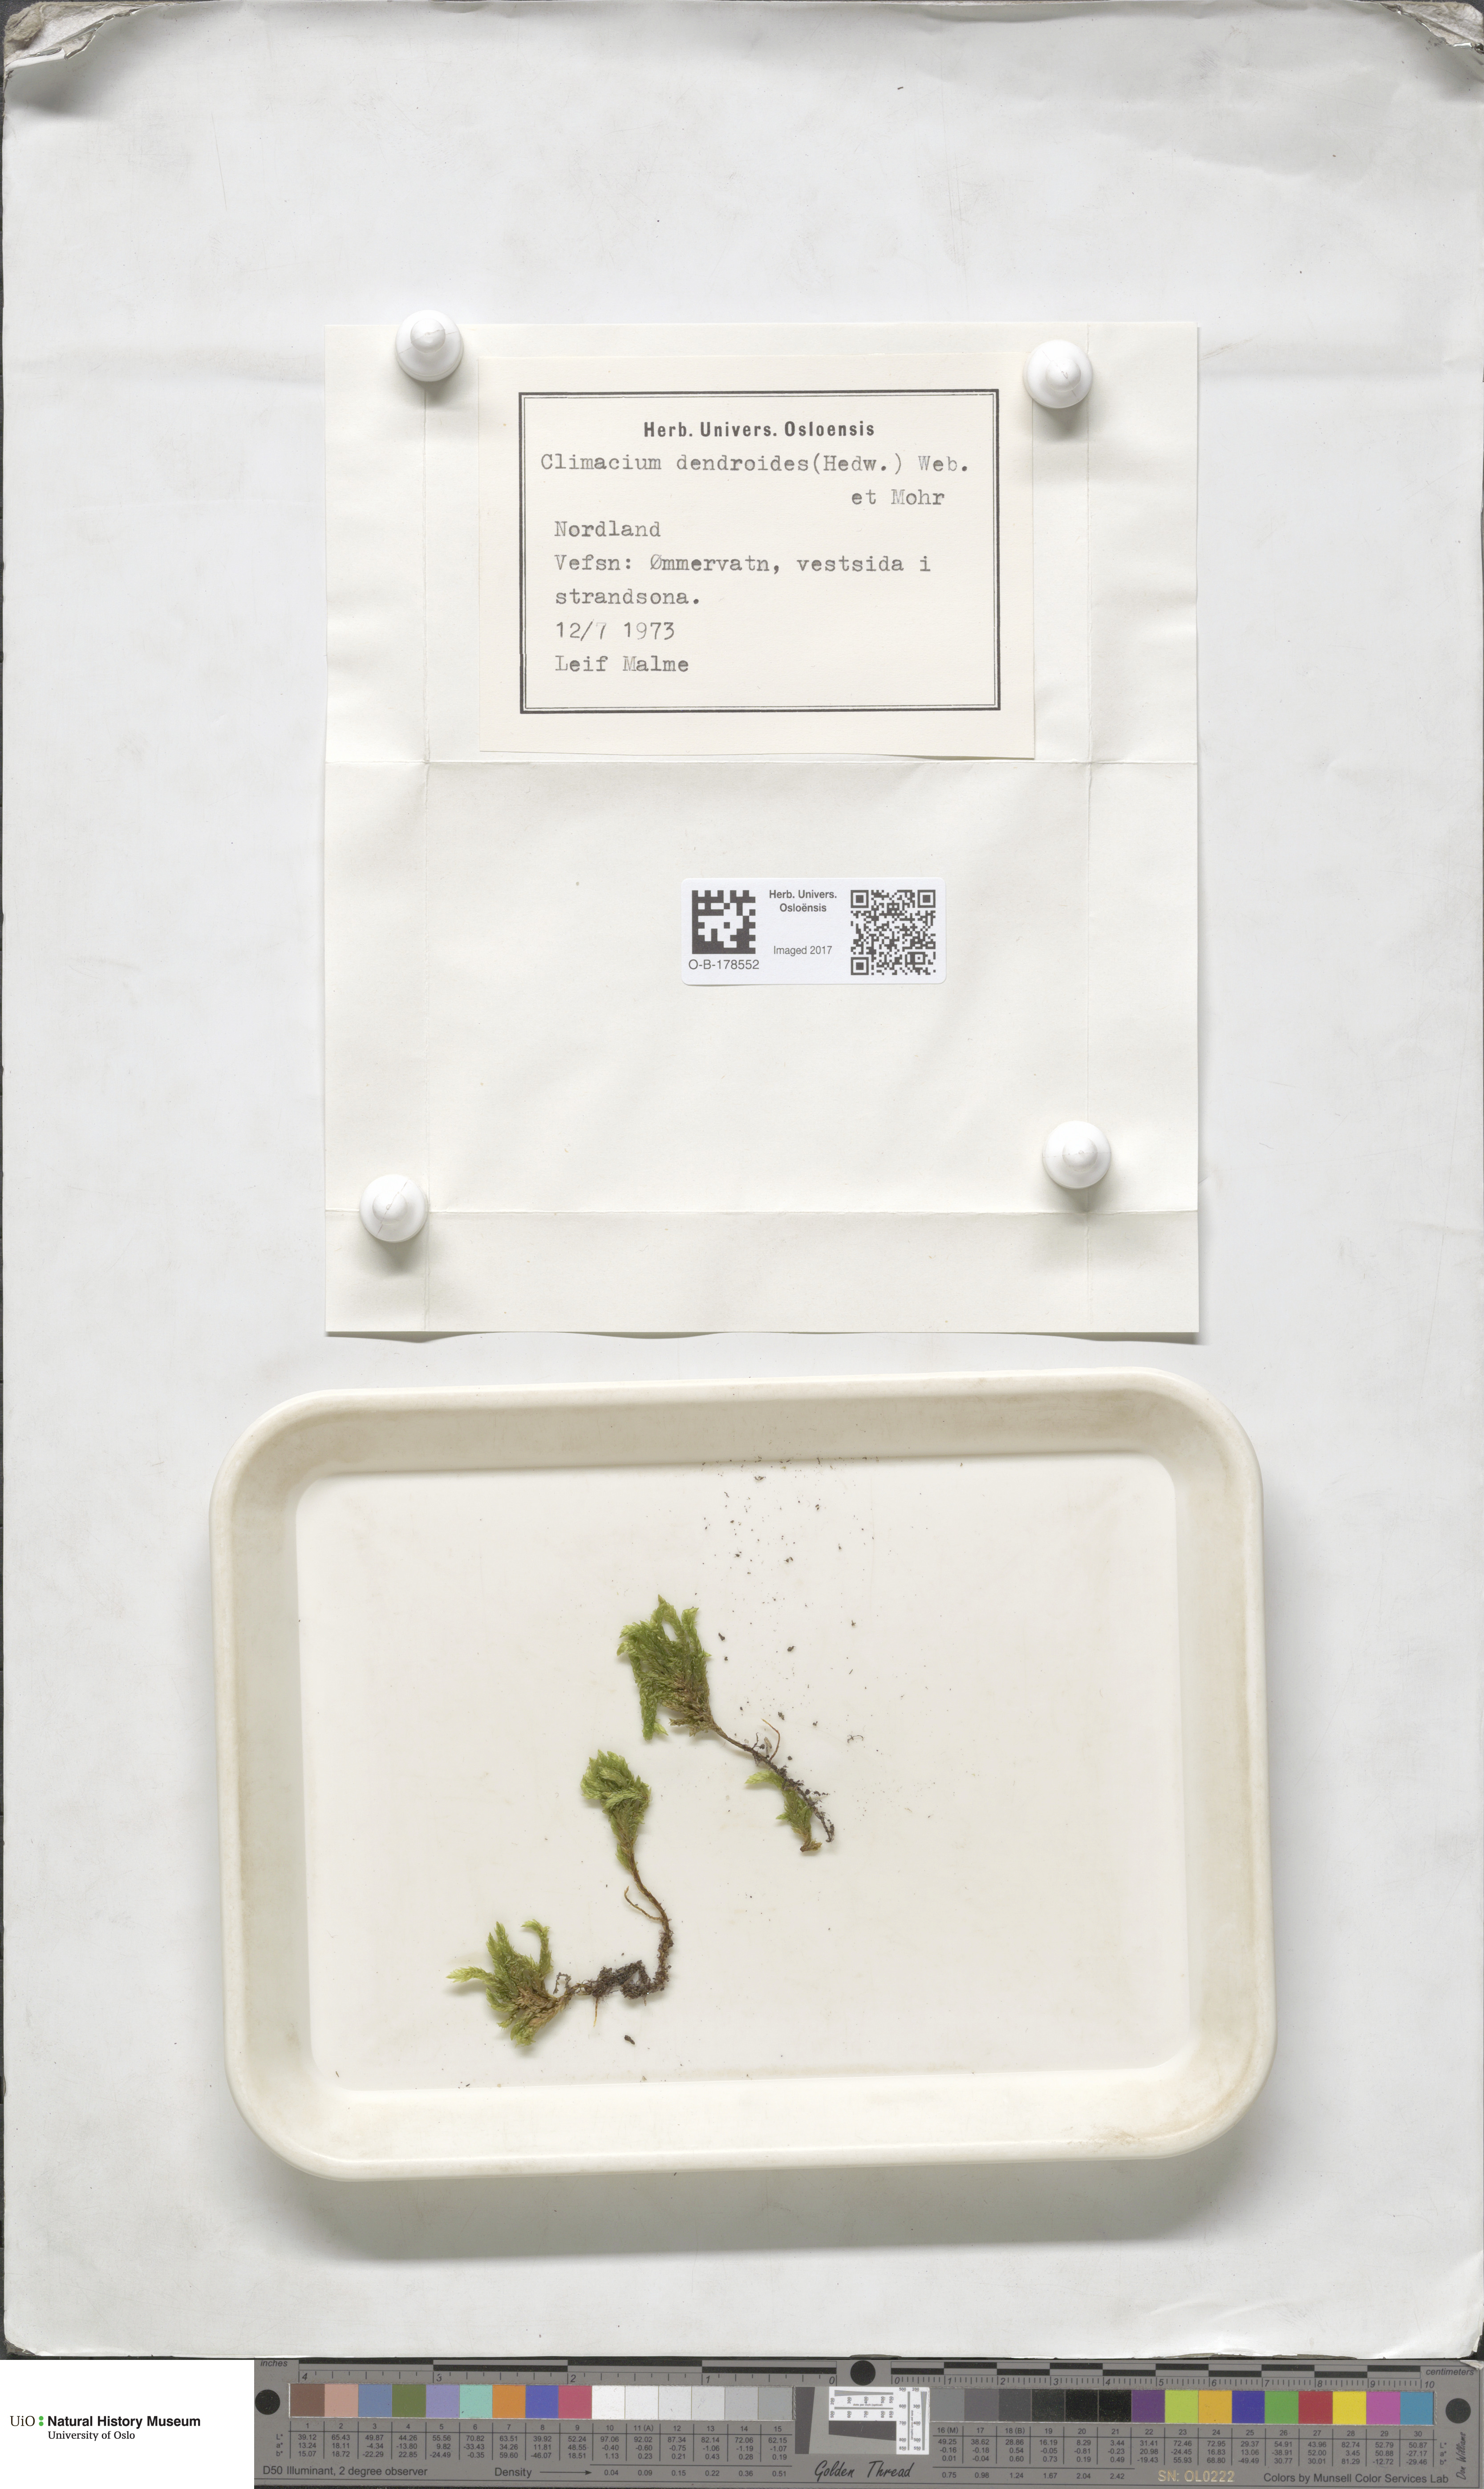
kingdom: Plantae
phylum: Bryophyta
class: Bryopsida
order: Hypnales
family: Climaciaceae
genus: Climacium
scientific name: Climacium dendroides
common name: Northern tree moss
